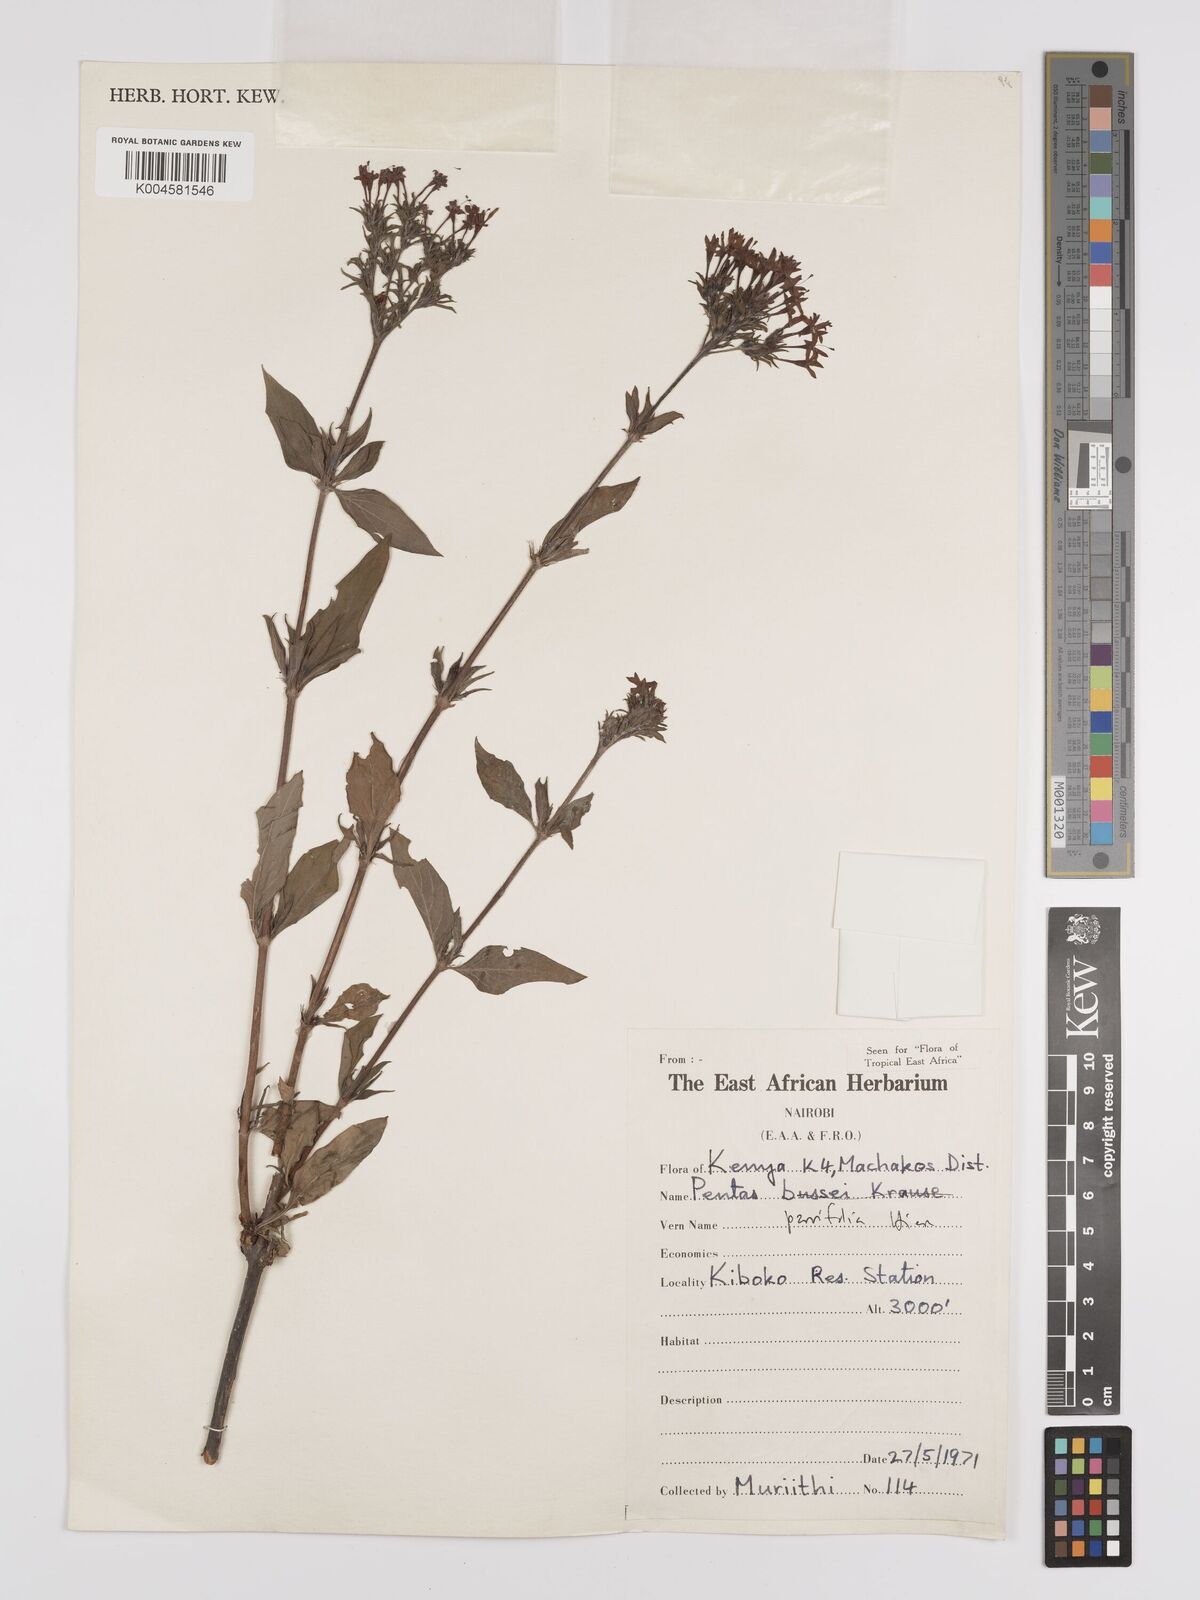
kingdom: Plantae
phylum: Tracheophyta
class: Magnoliopsida
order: Gentianales
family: Rubiaceae
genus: Rhodopentas
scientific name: Rhodopentas parvifolia
